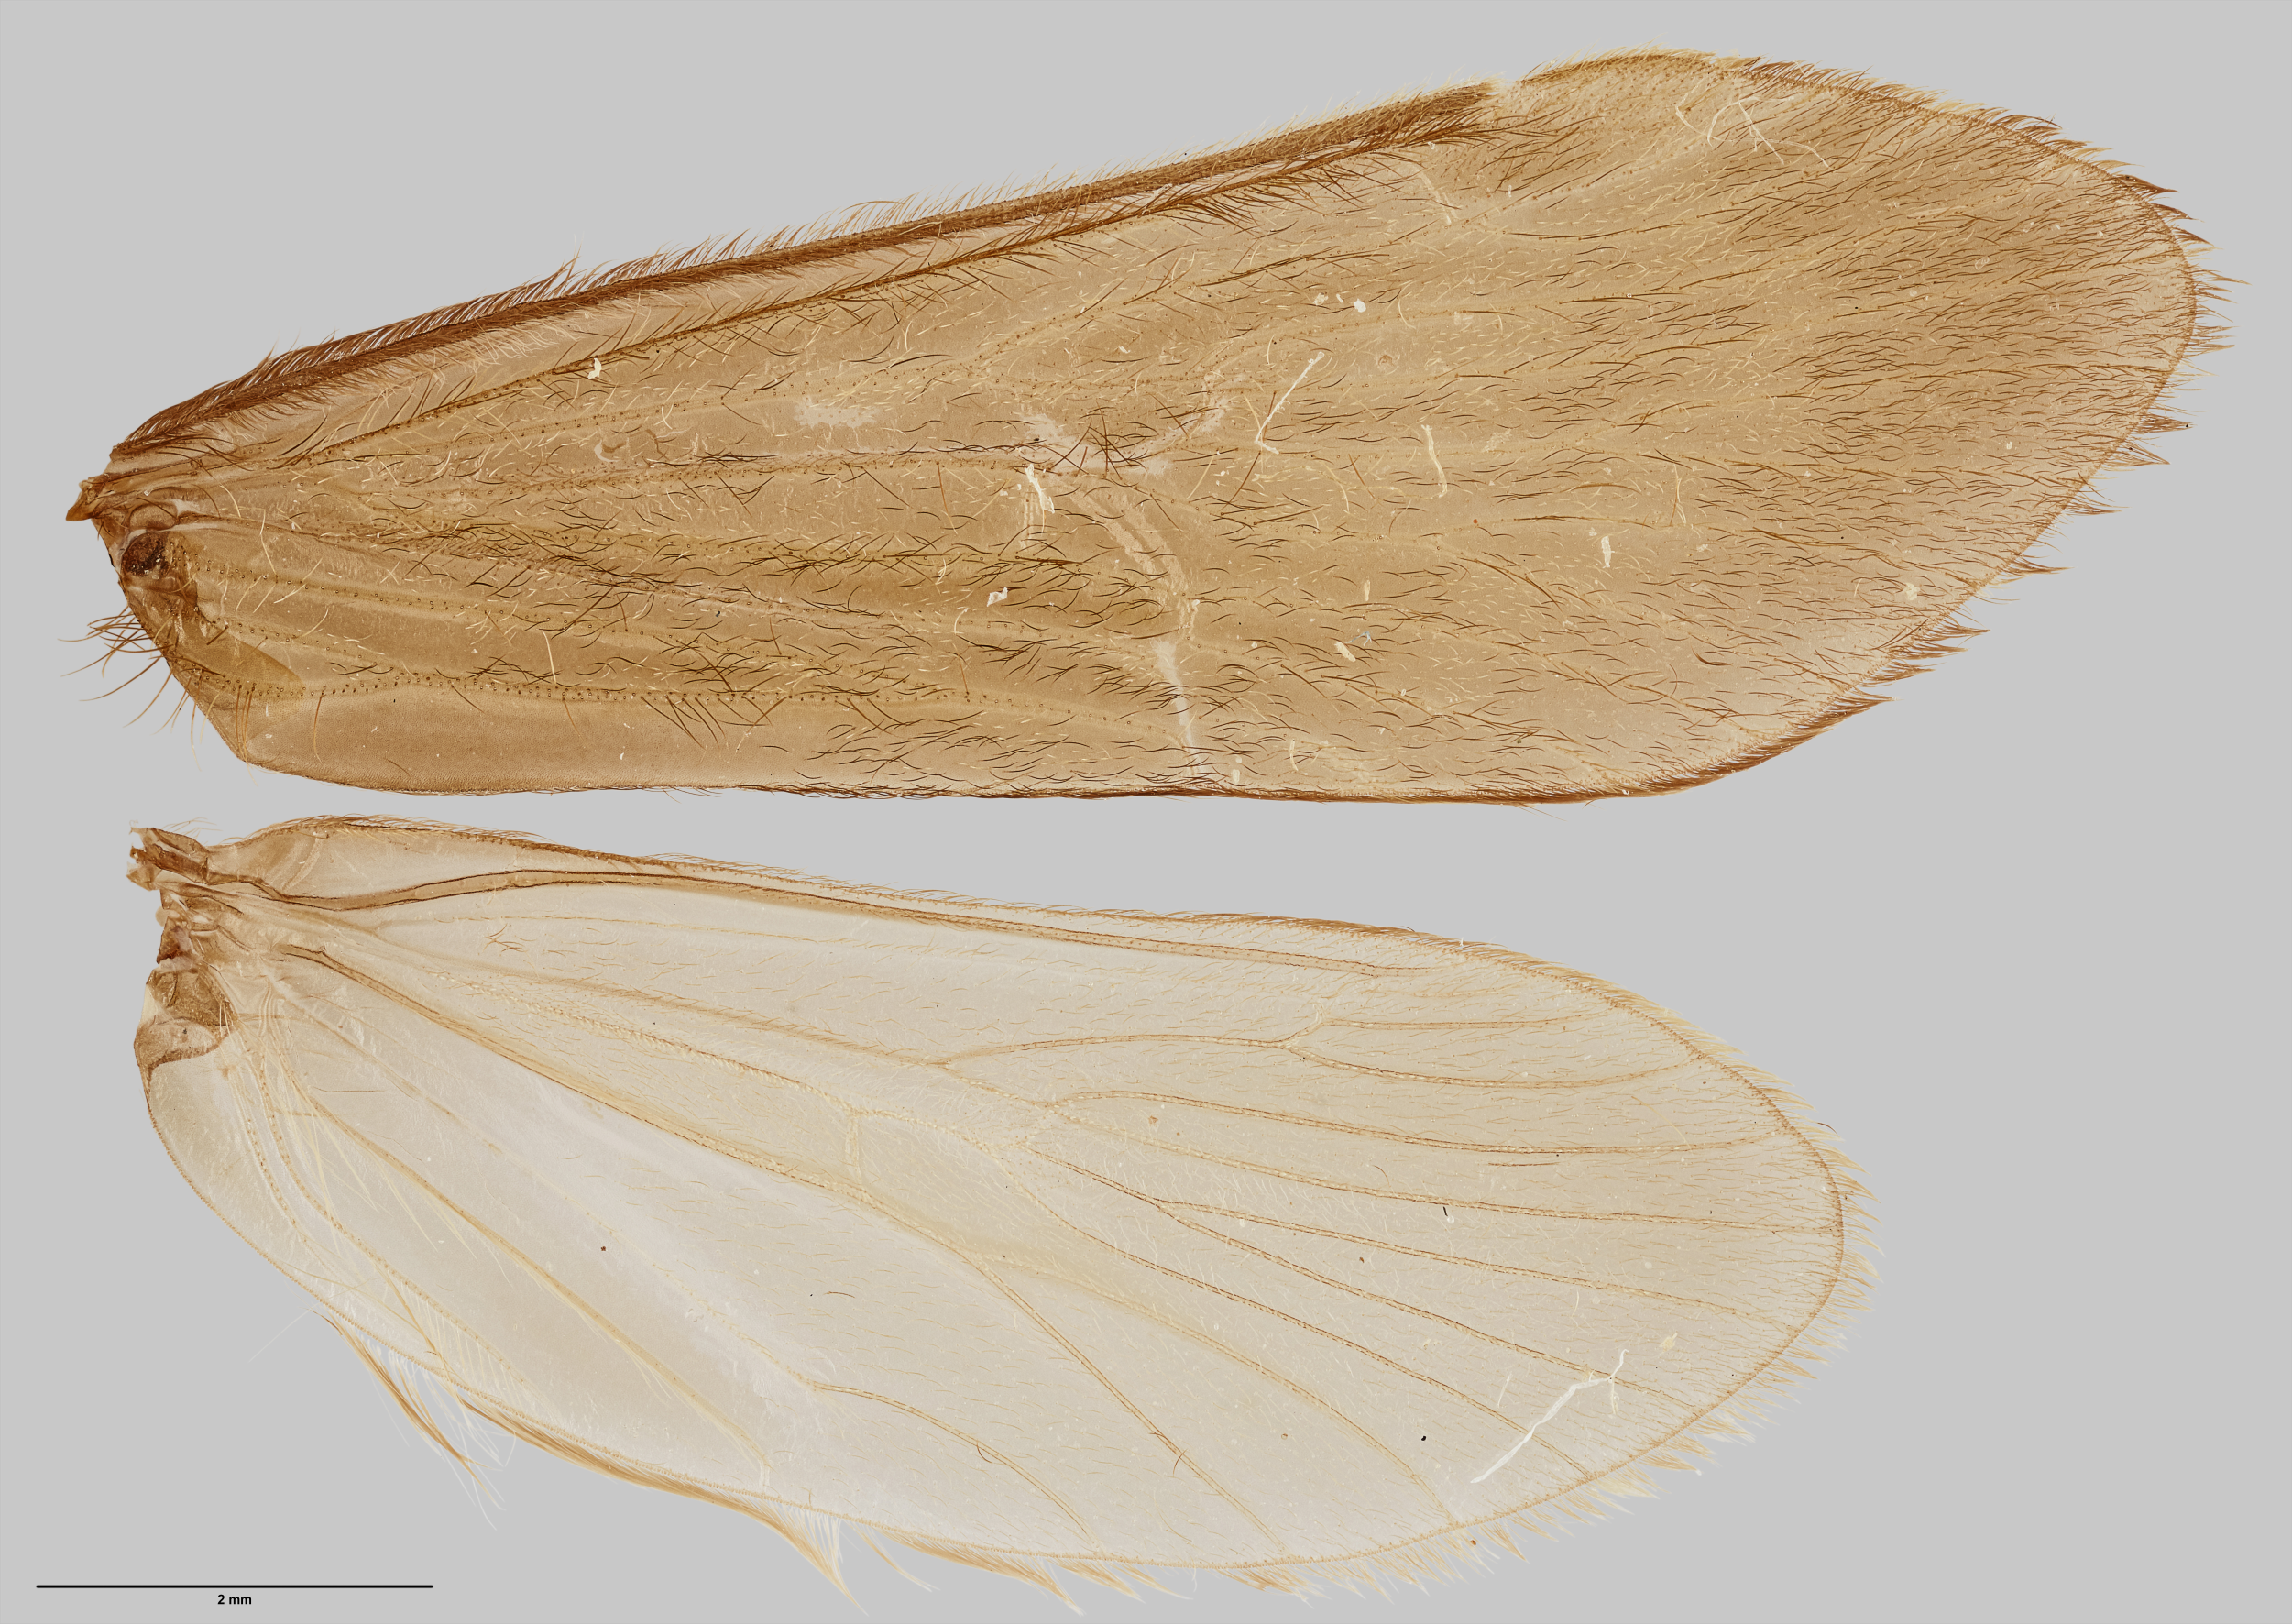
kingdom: Animalia
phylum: Arthropoda
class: Insecta
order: Trichoptera
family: Hydrobiosidae
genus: Costachorema
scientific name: Costachorema notopterum
